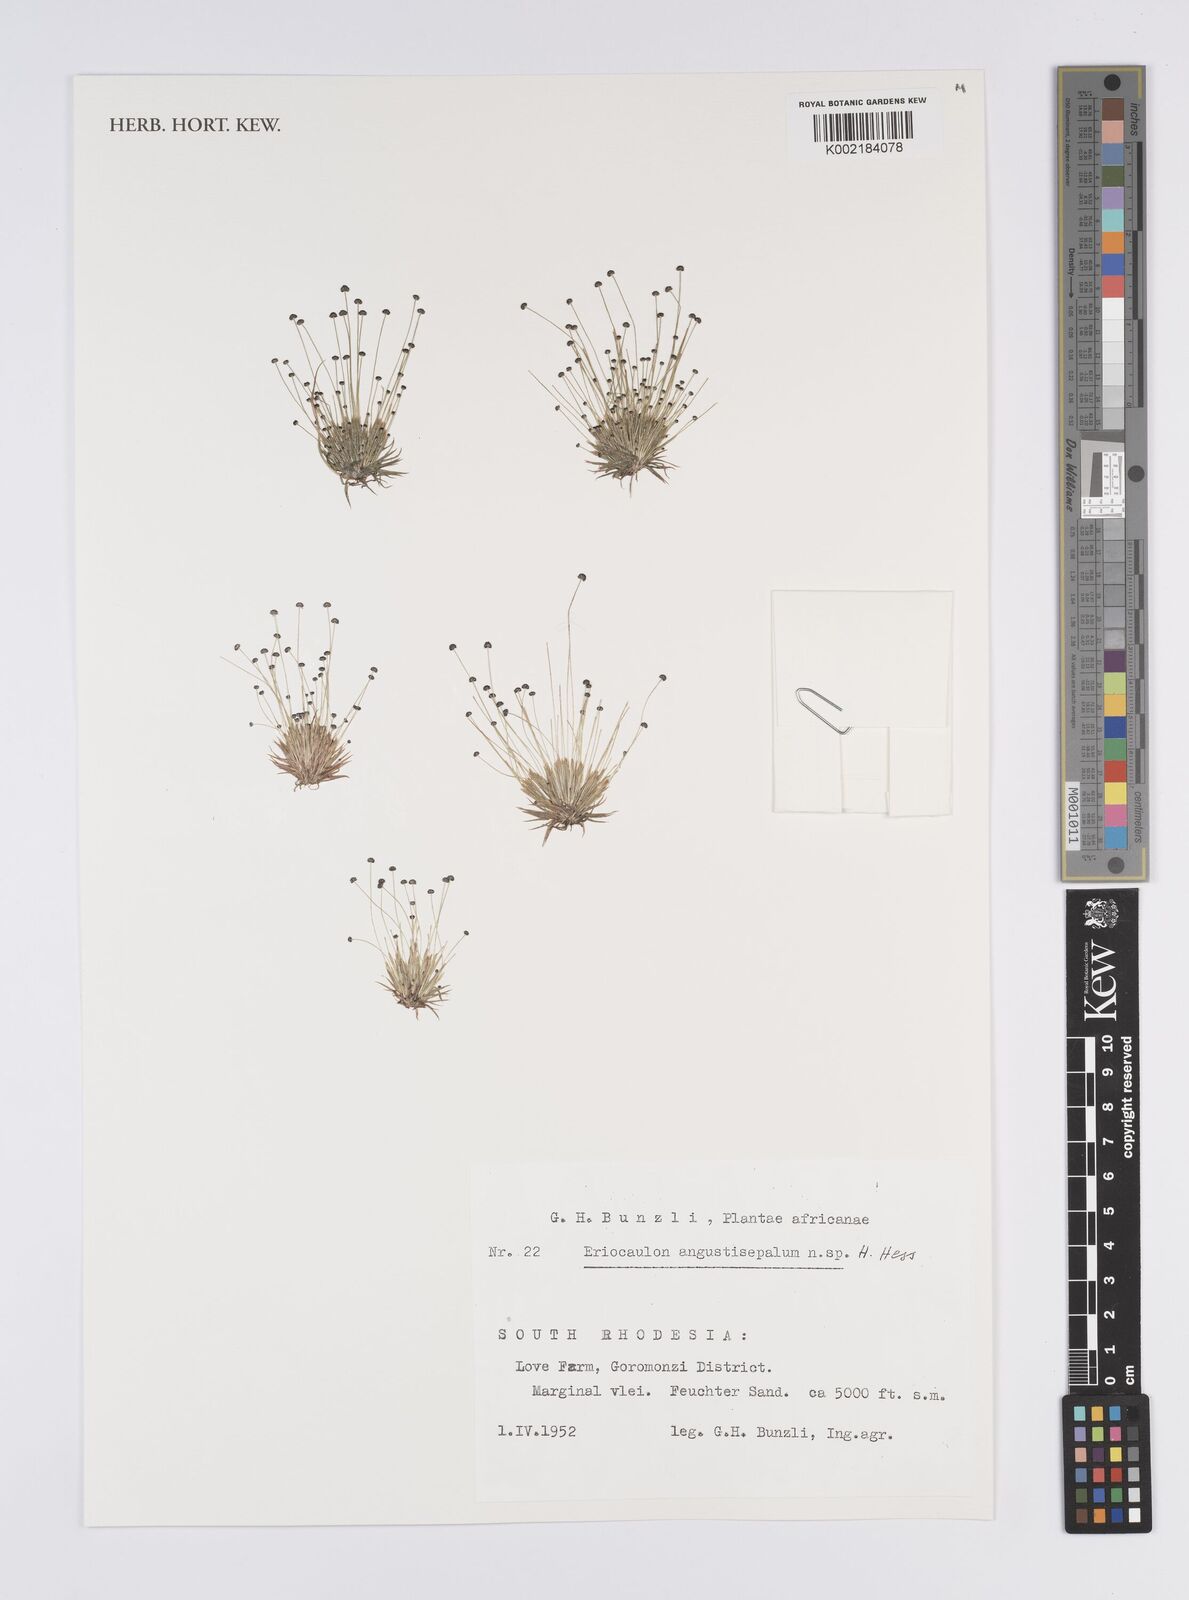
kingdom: Plantae
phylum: Tracheophyta
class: Liliopsida
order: Poales
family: Eriocaulaceae
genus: Eriocaulon
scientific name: Eriocaulon mutatum
